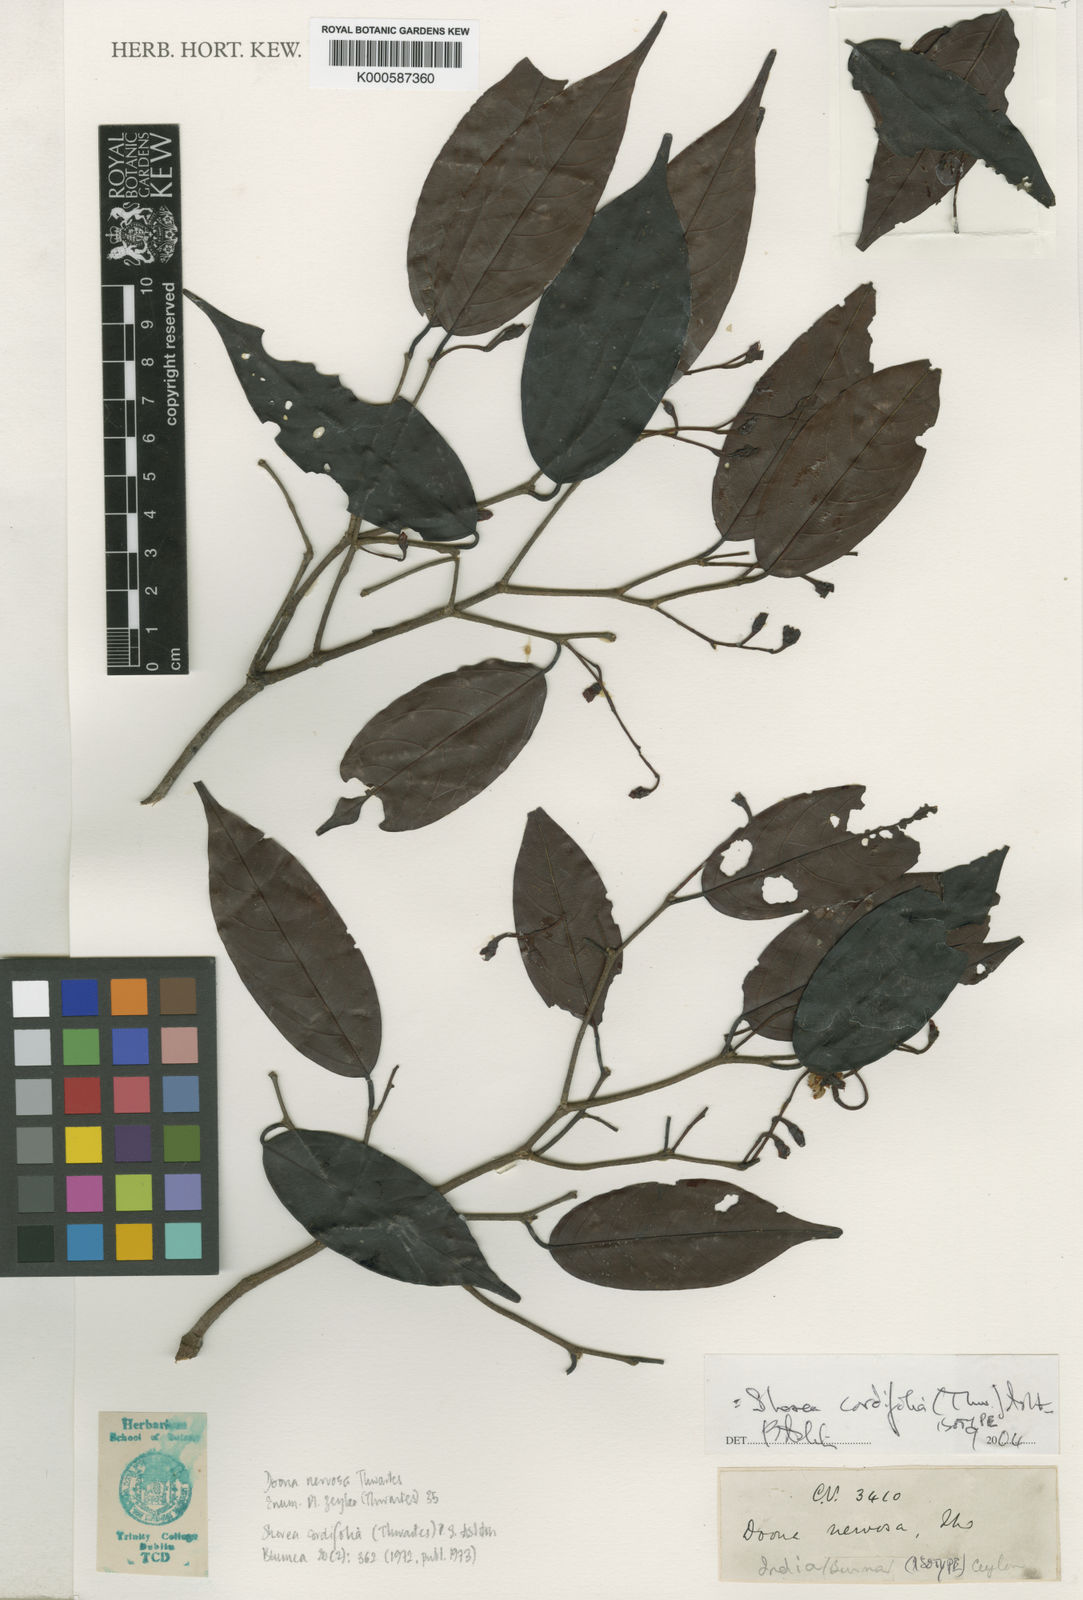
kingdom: Plantae
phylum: Tracheophyta
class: Magnoliopsida
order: Malvales
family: Dipterocarpaceae
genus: Doona
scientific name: Doona cordifolia
